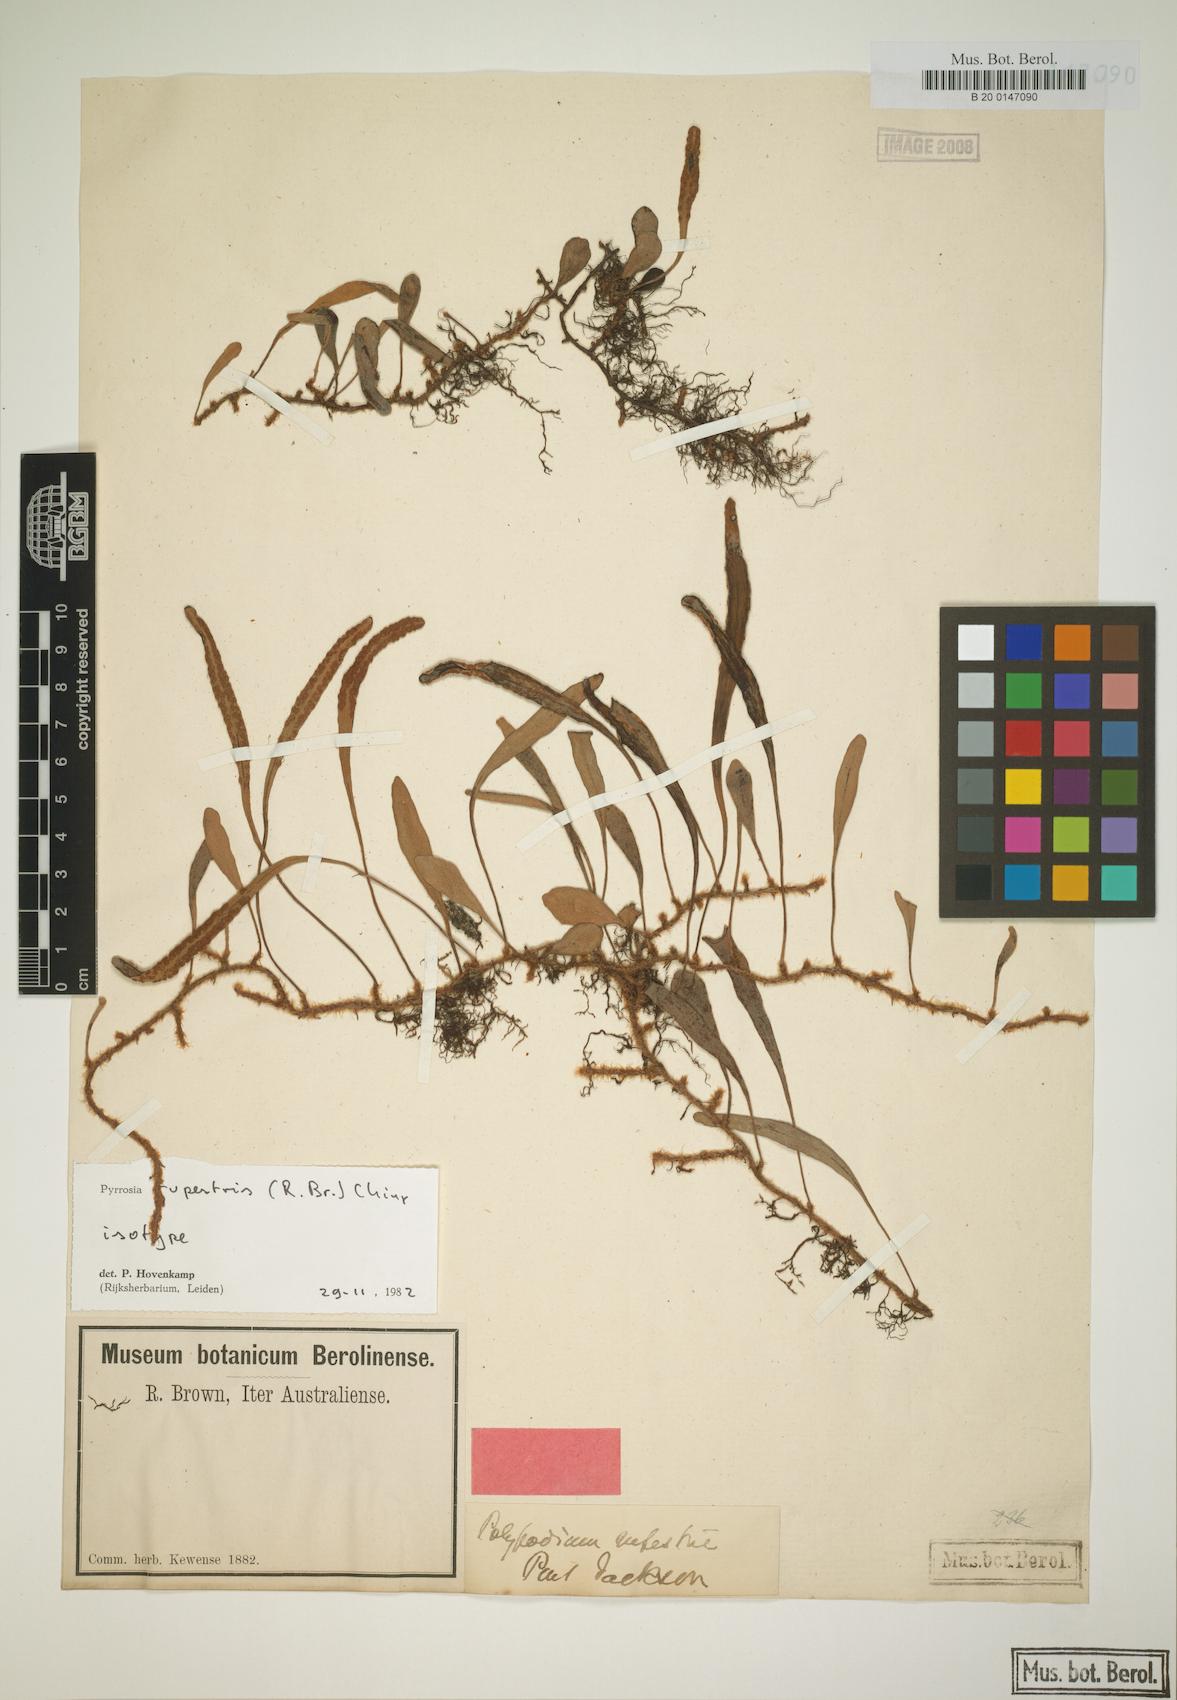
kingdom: Plantae
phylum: Tracheophyta
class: Polypodiopsida
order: Polypodiales
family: Polypodiaceae
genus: Pyrrosia
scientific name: Pyrrosia rupestris
